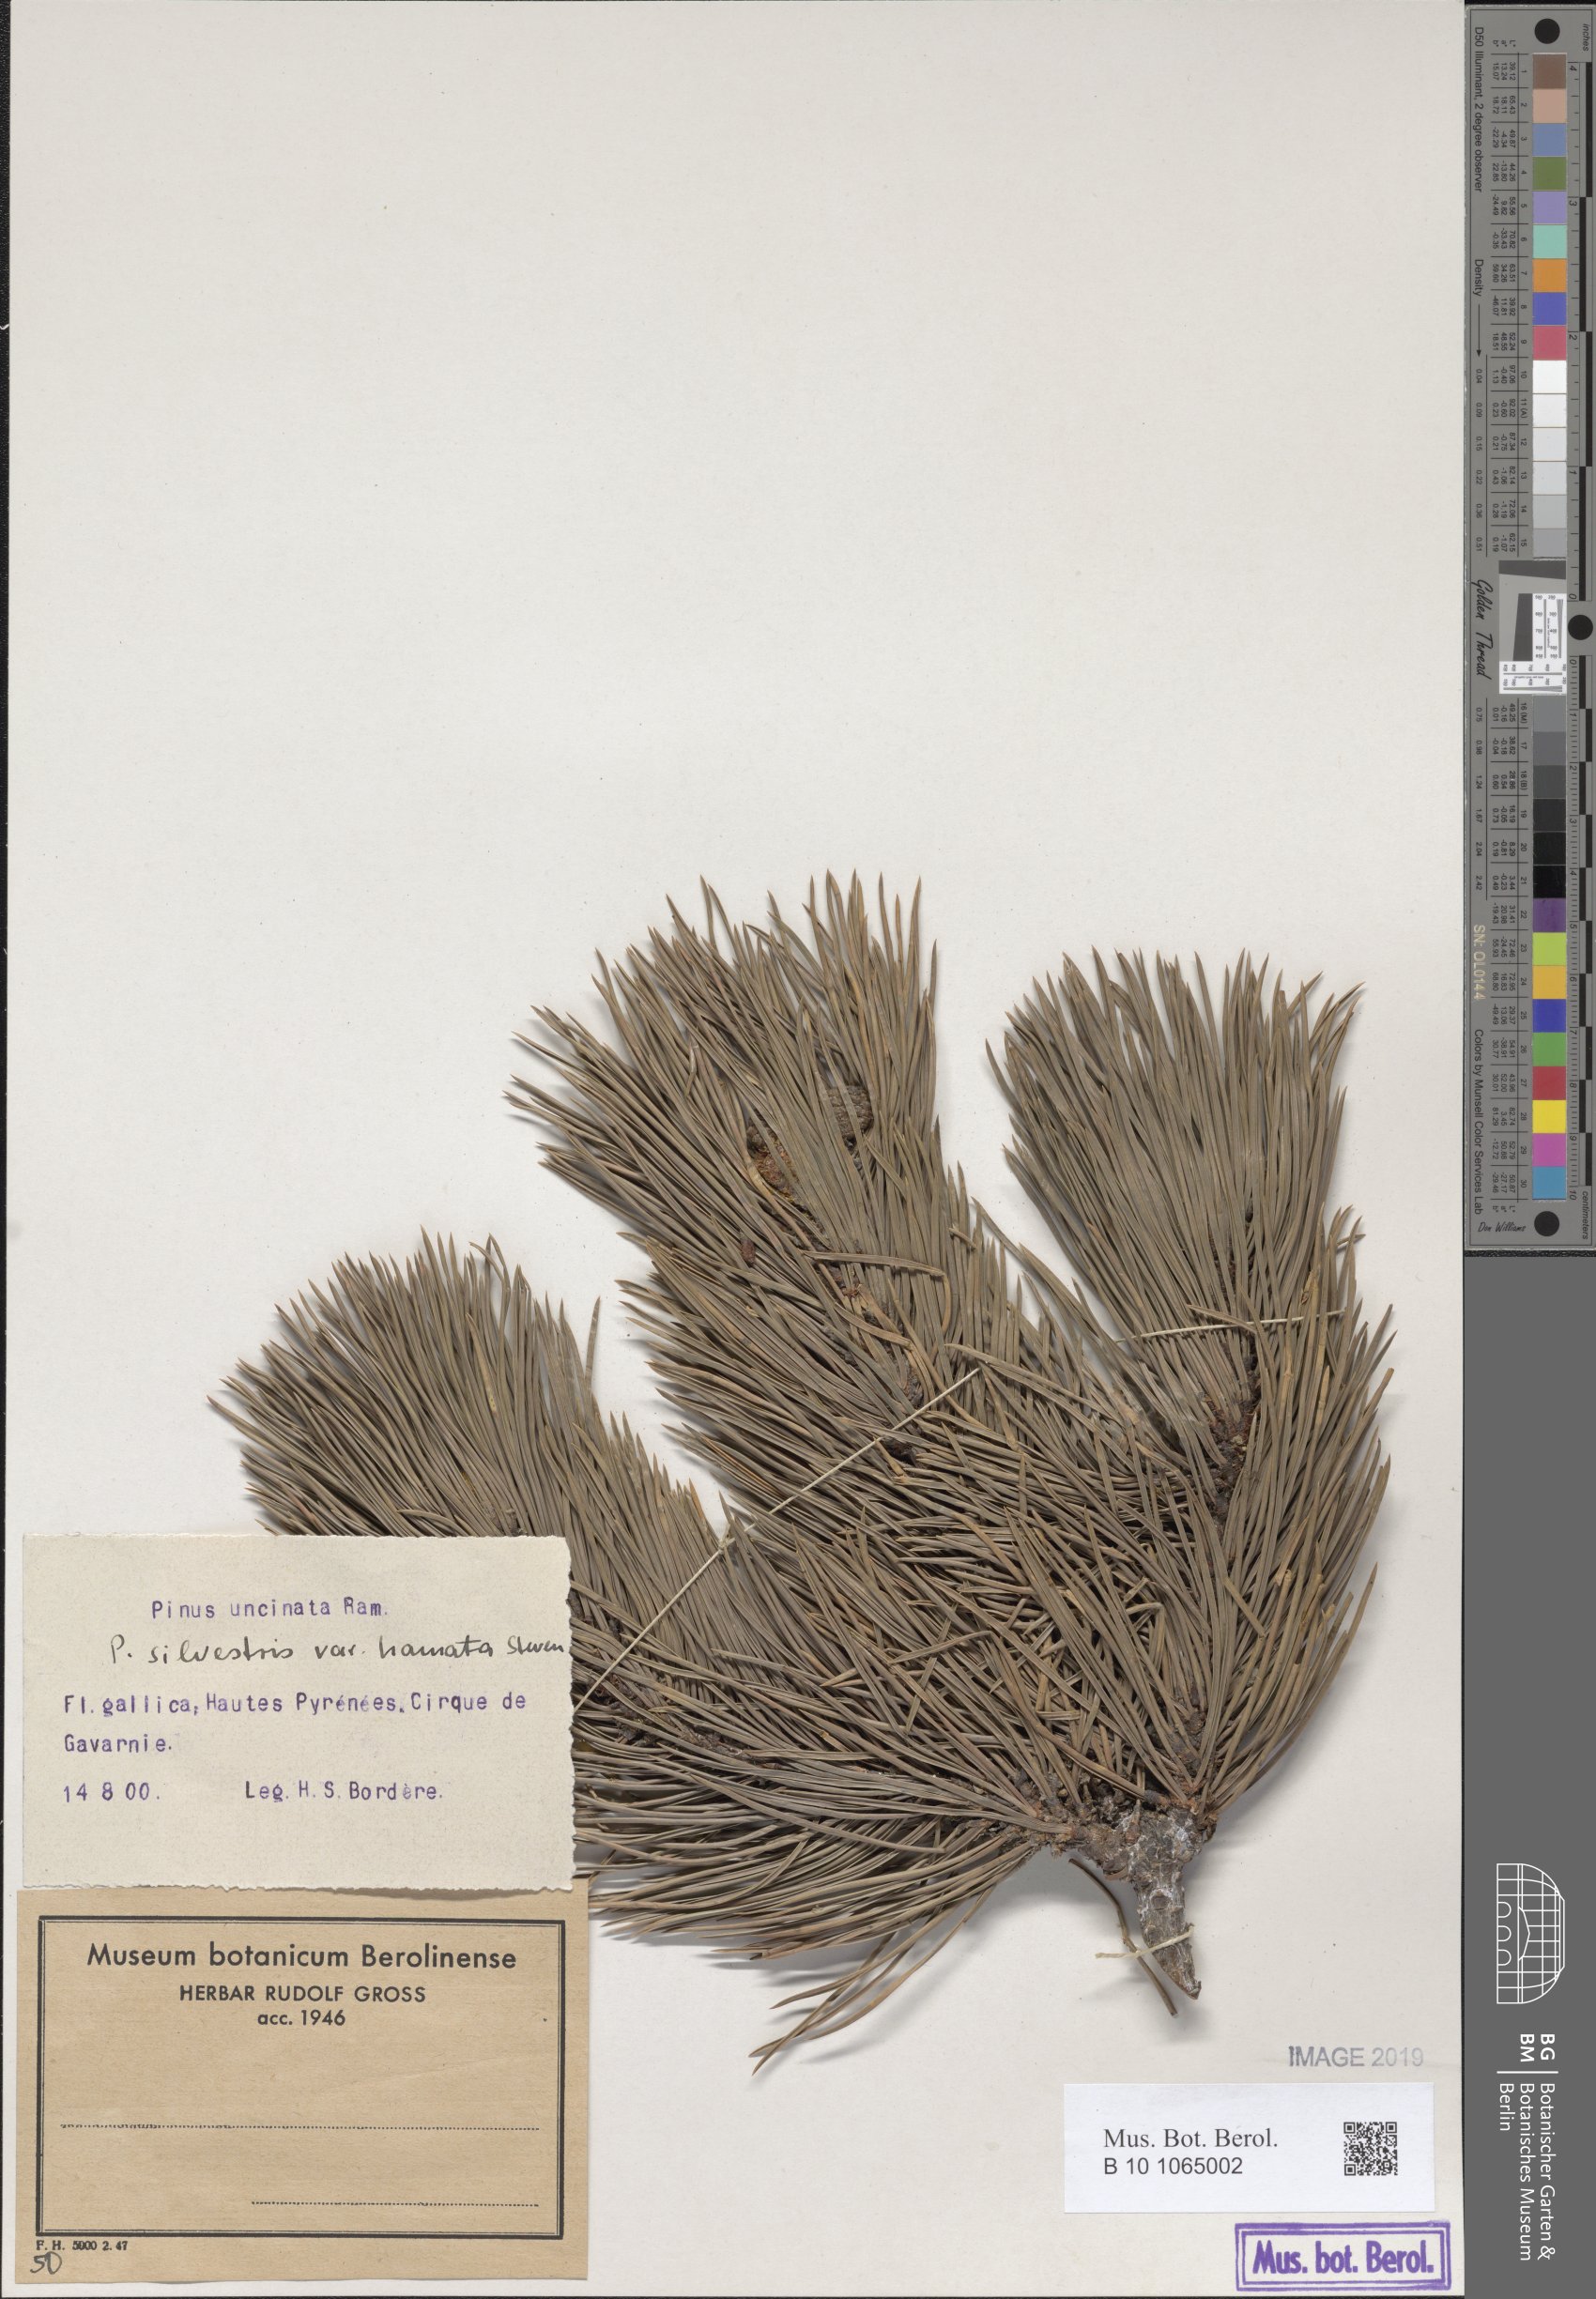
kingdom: Plantae
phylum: Tracheophyta
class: Pinopsida
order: Pinales
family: Pinaceae
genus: Pinus
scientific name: Pinus sylvestris
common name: Scots pine
